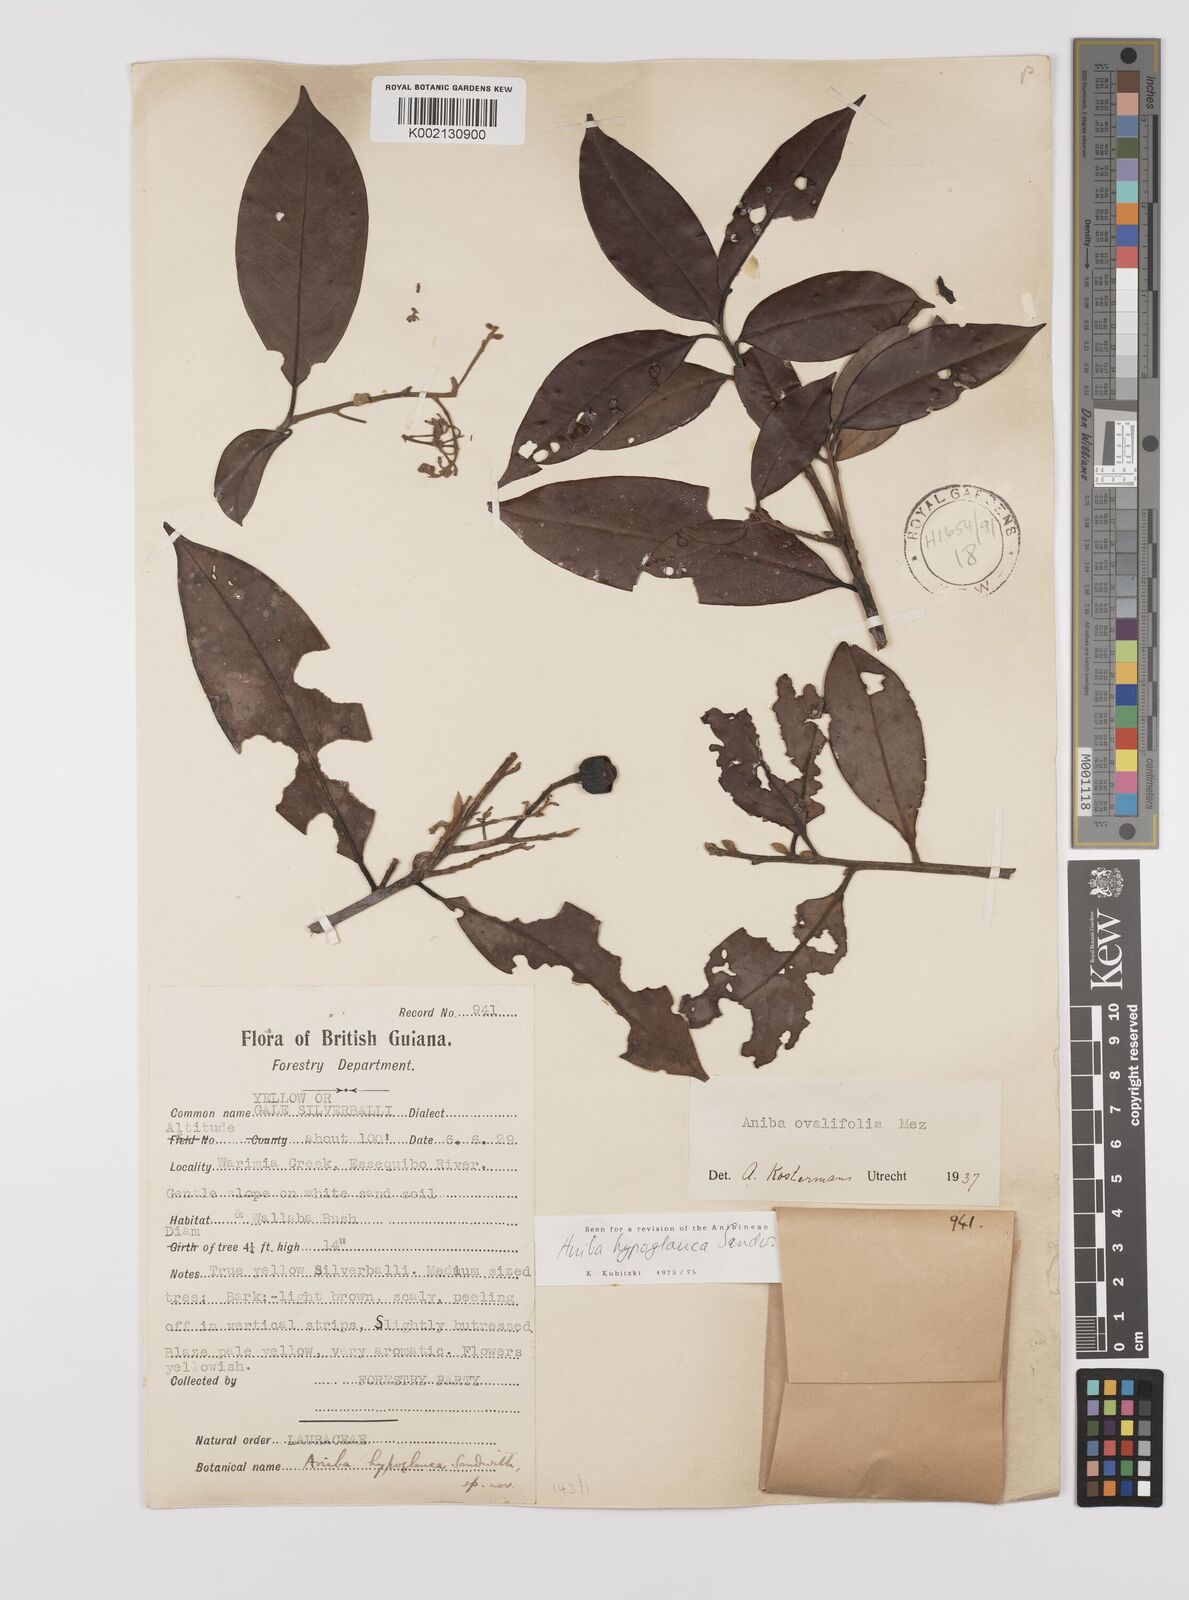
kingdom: Plantae
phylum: Tracheophyta
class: Magnoliopsida
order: Laurales
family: Lauraceae
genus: Aniba
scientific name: Aniba hypoglauca
